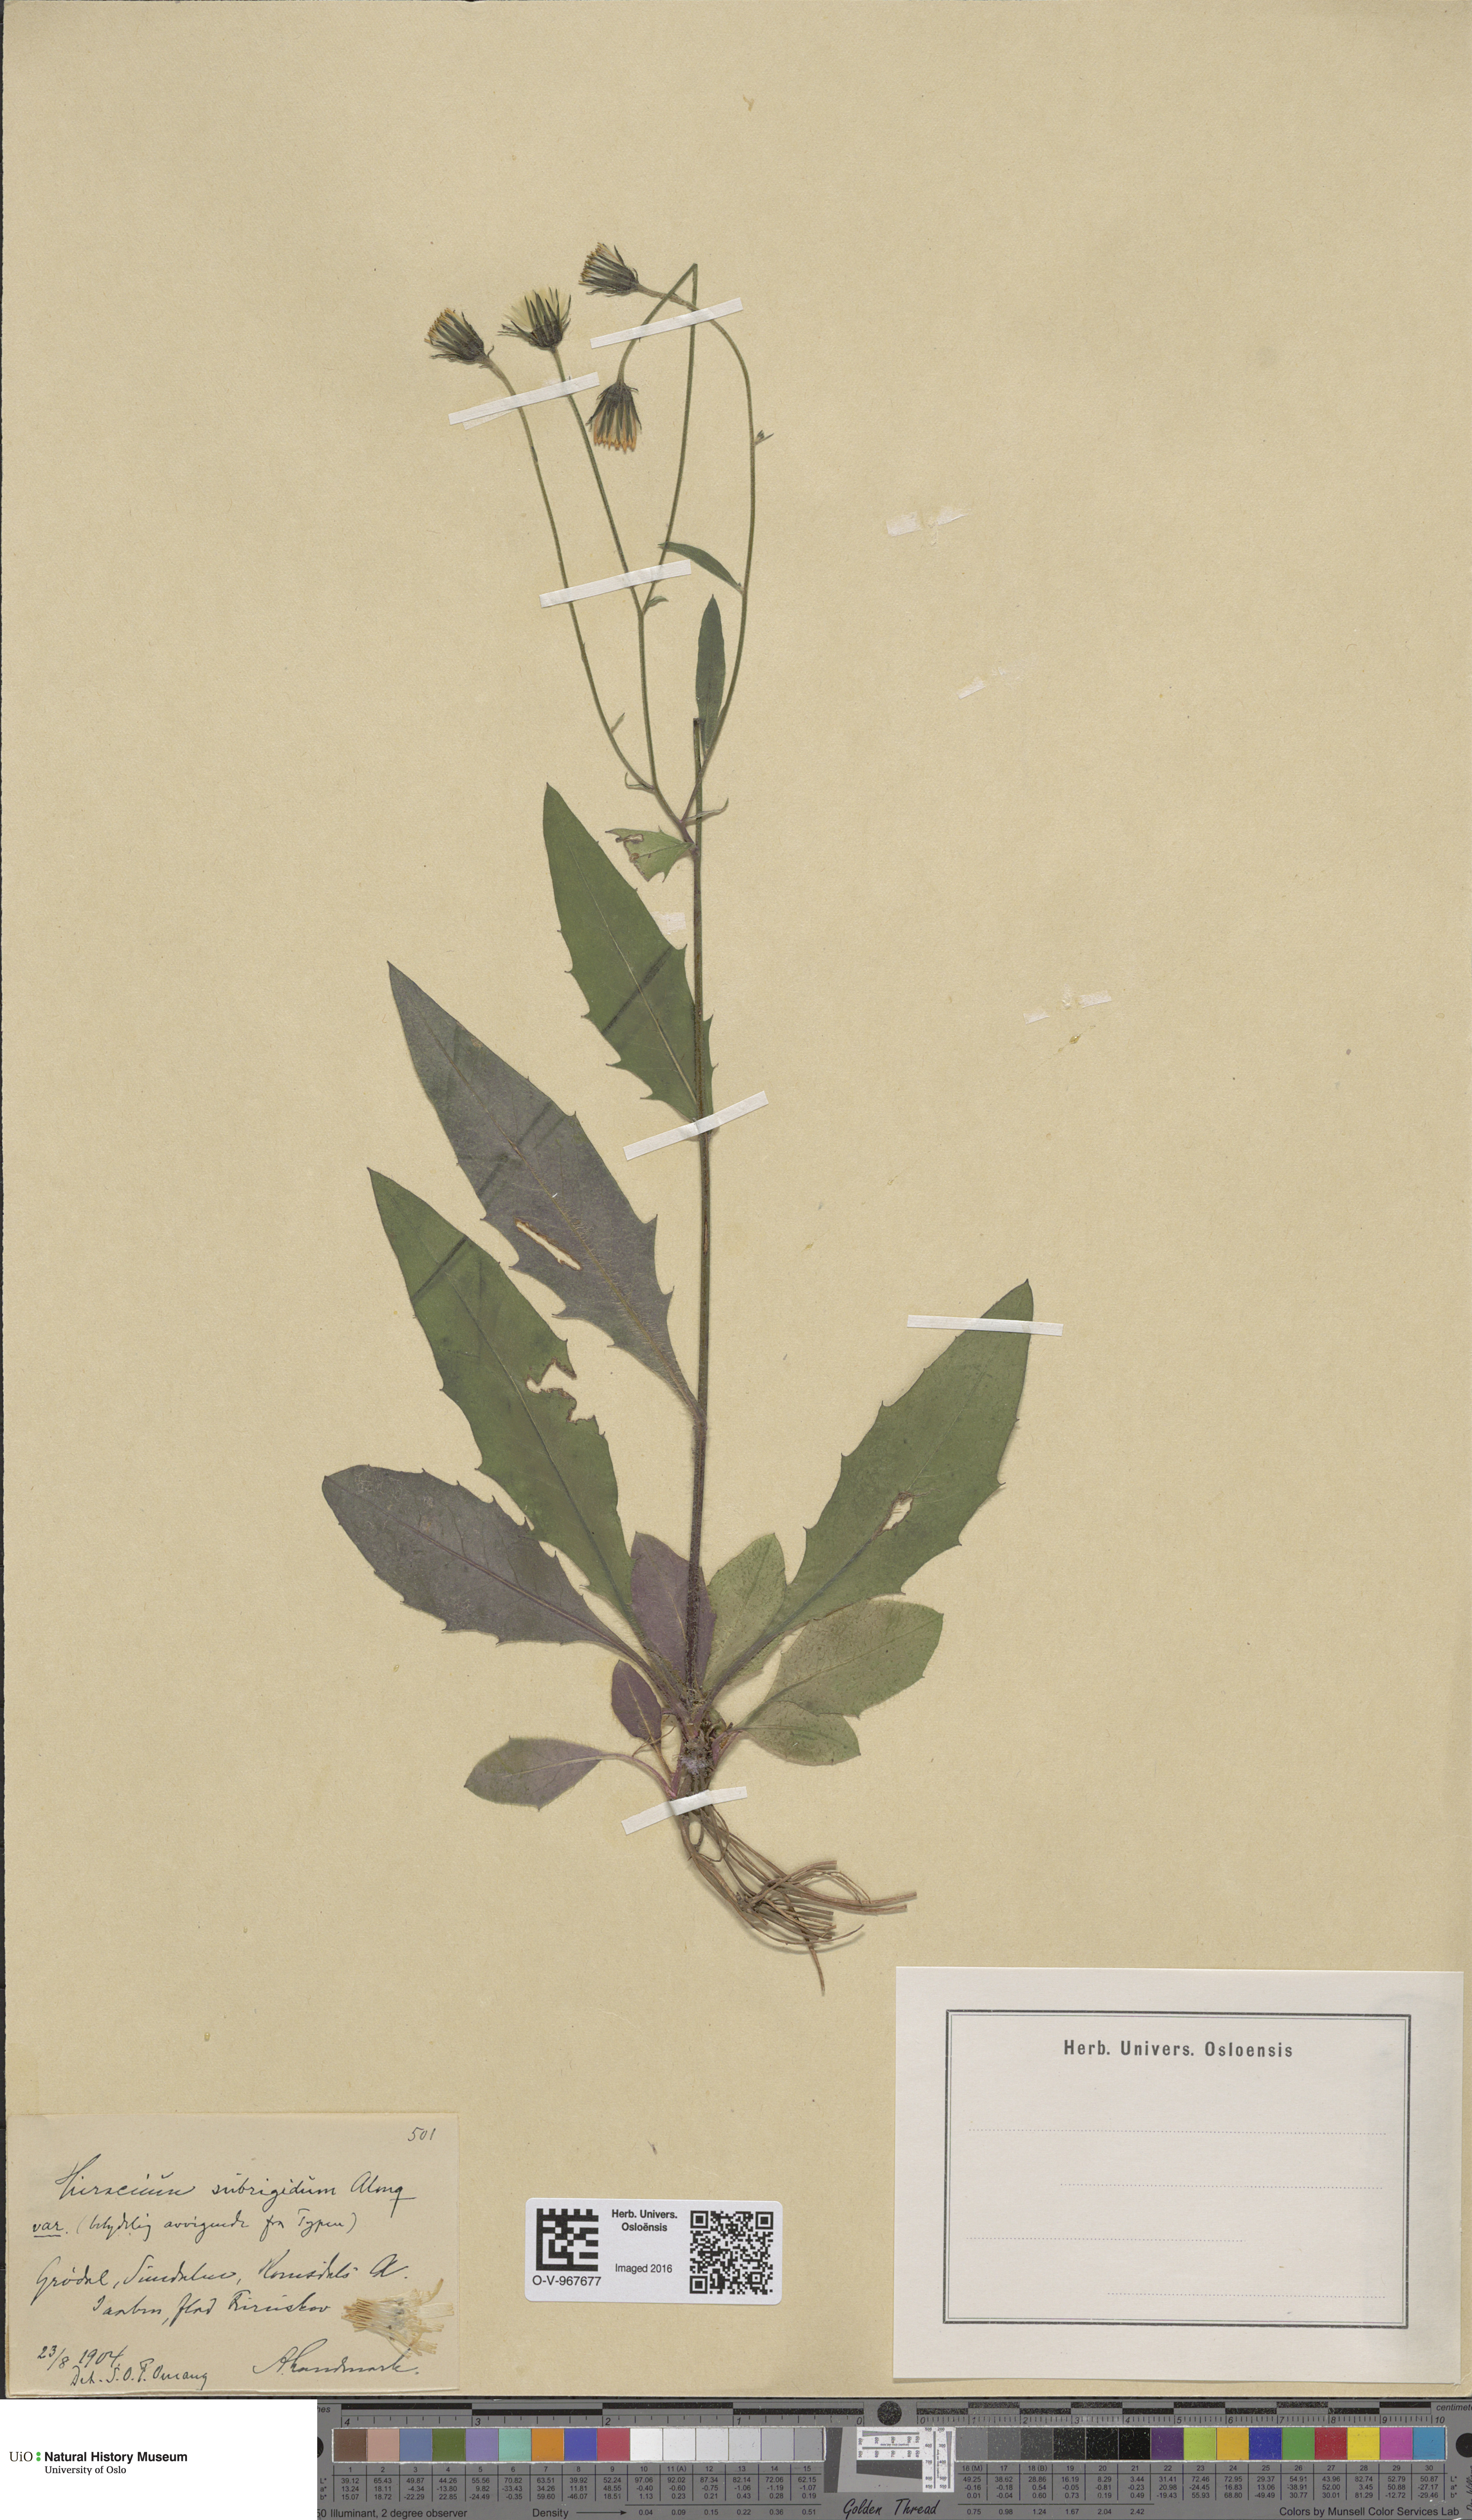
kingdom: Plantae
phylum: Tracheophyta
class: Magnoliopsida
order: Asterales
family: Asteraceae
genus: Hieracium
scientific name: Hieracium subrigidum
